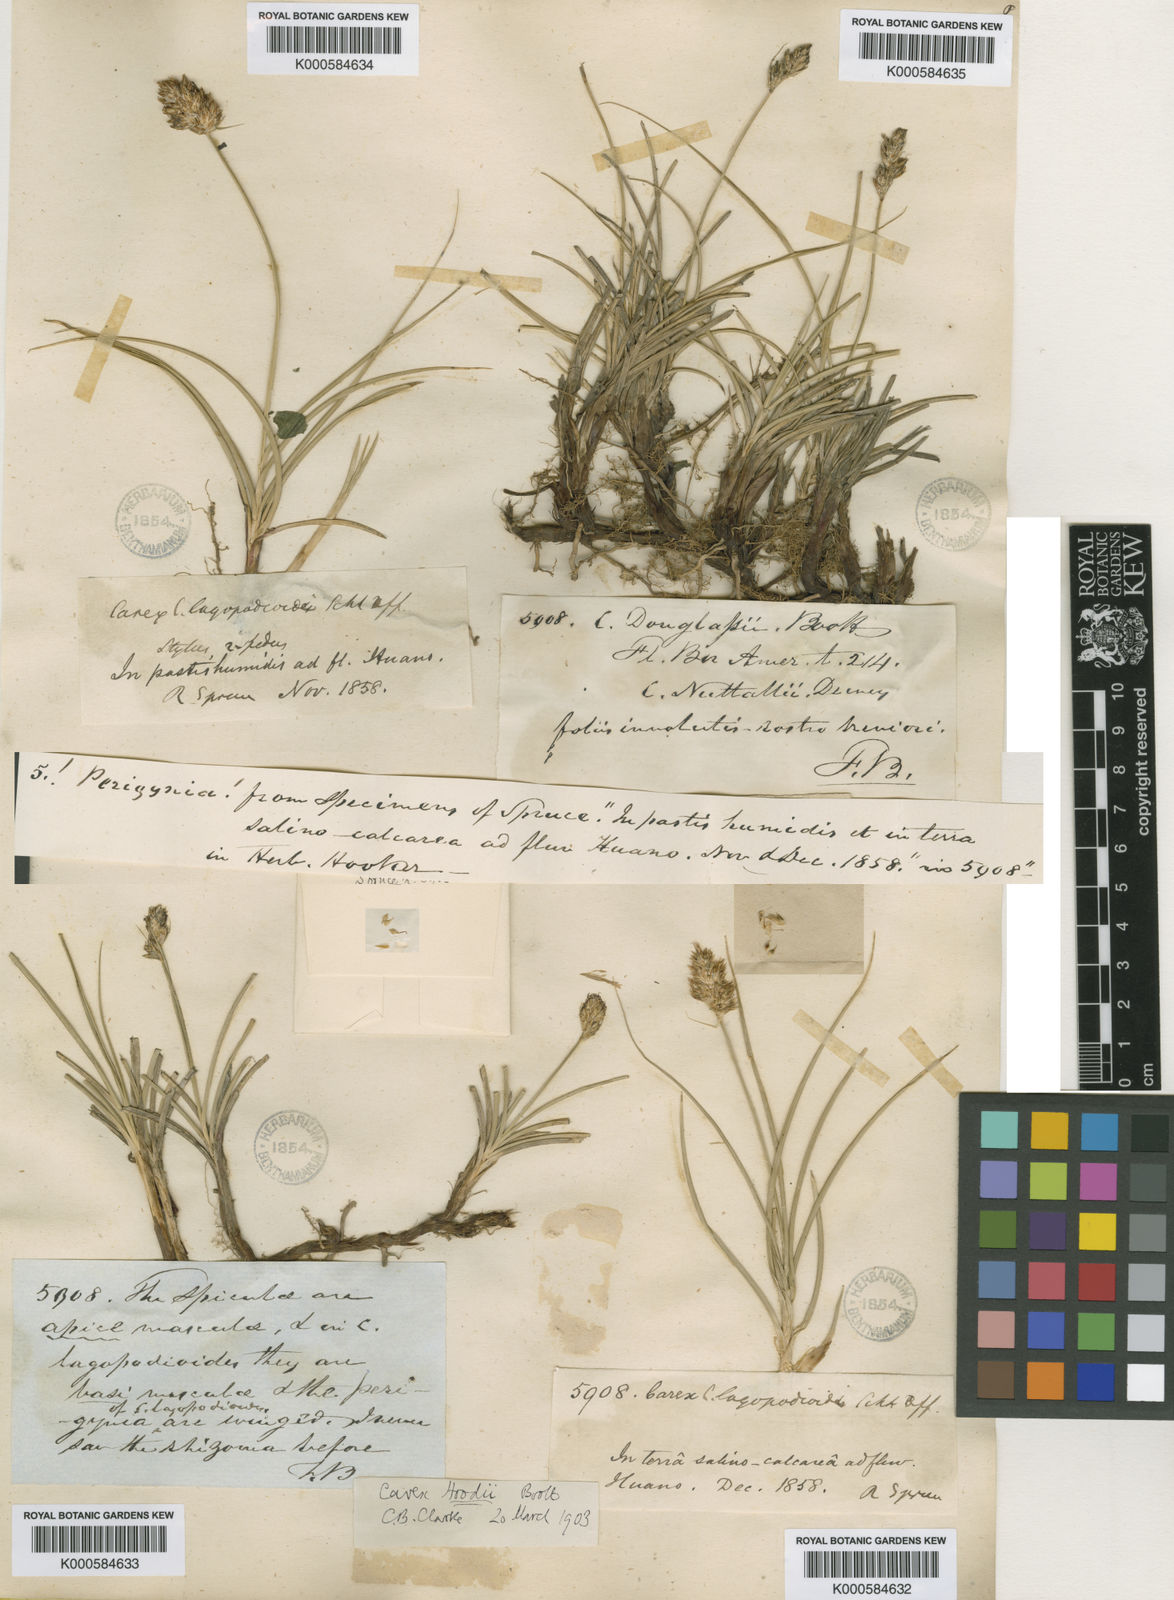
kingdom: Plantae
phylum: Tracheophyta
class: Liliopsida
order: Poales
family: Cyperaceae
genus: Carex
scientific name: Carex
